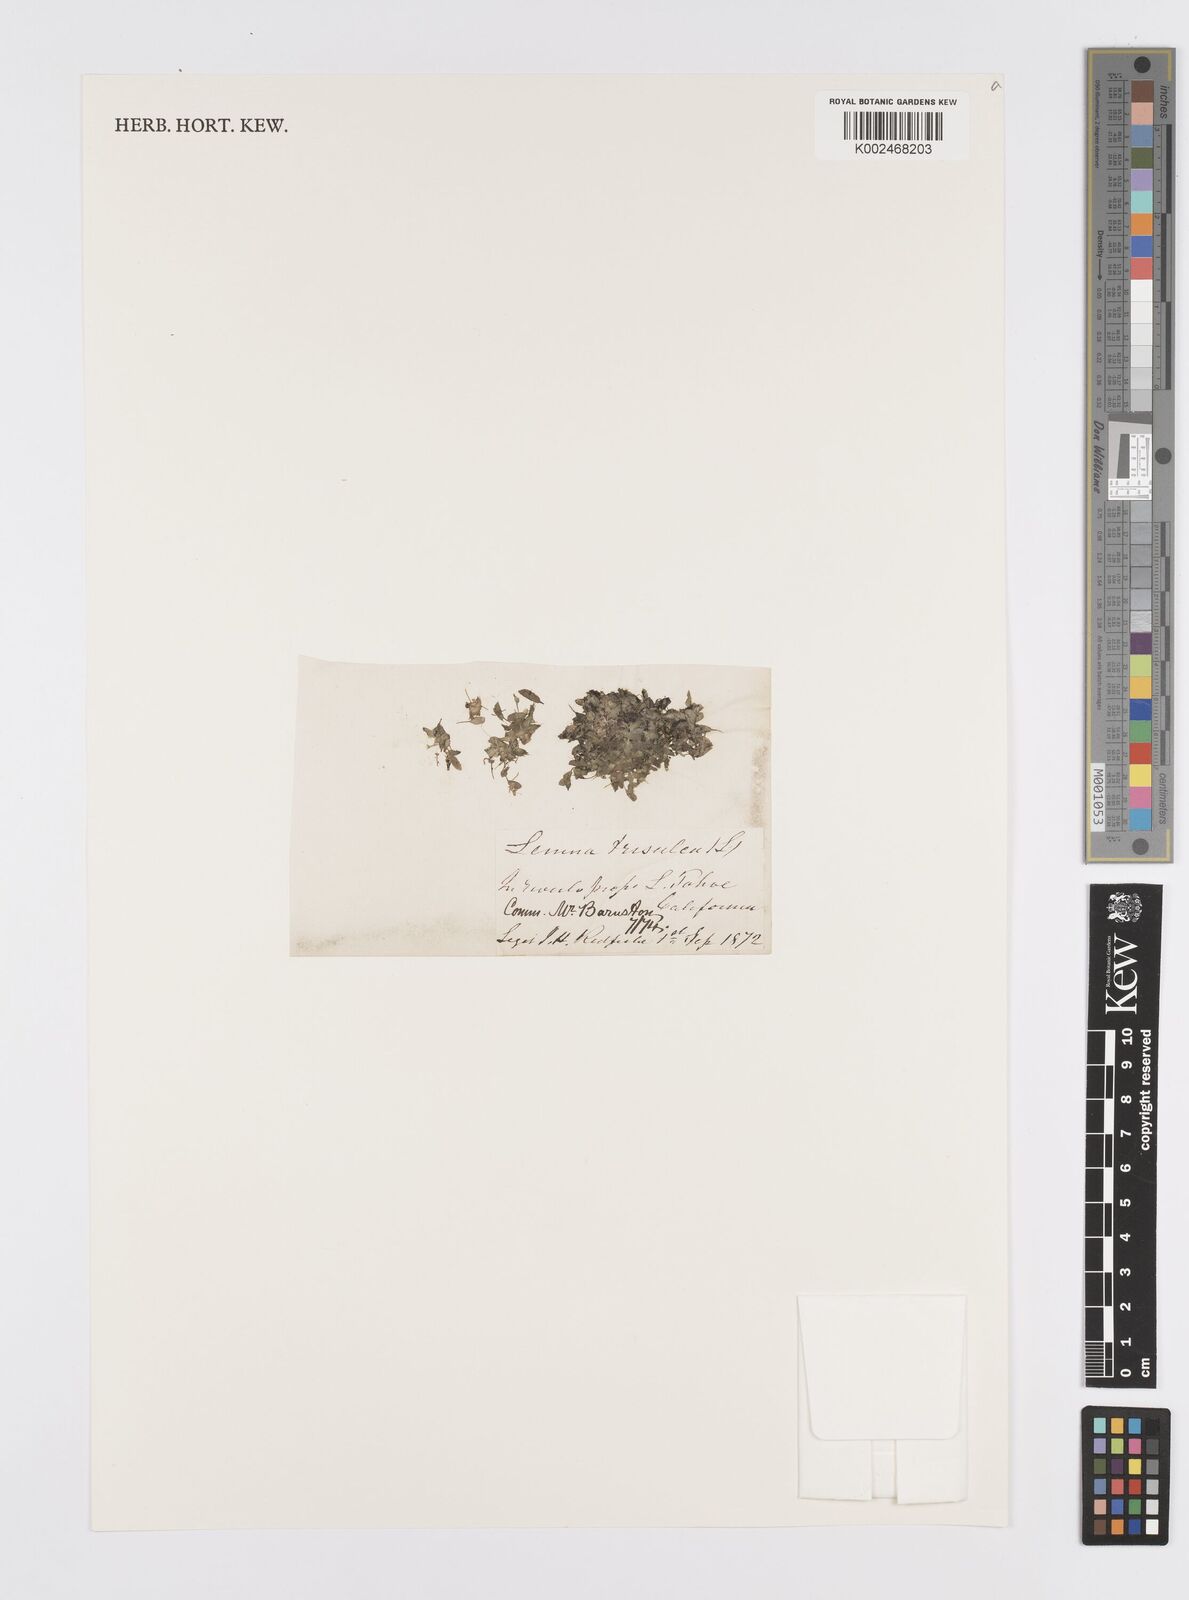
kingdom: Plantae
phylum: Tracheophyta
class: Liliopsida
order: Alismatales
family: Araceae
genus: Lemna
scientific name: Lemna trisulca
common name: Ivy-leaved duckweed
